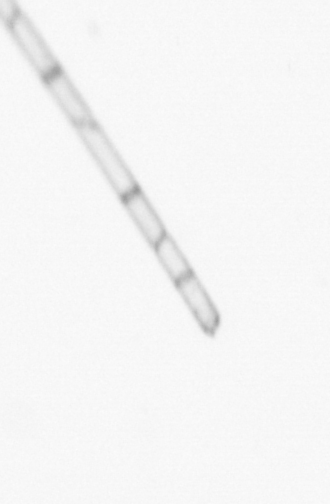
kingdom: Chromista
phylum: Ochrophyta
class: Bacillariophyceae
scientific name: Bacillariophyceae
